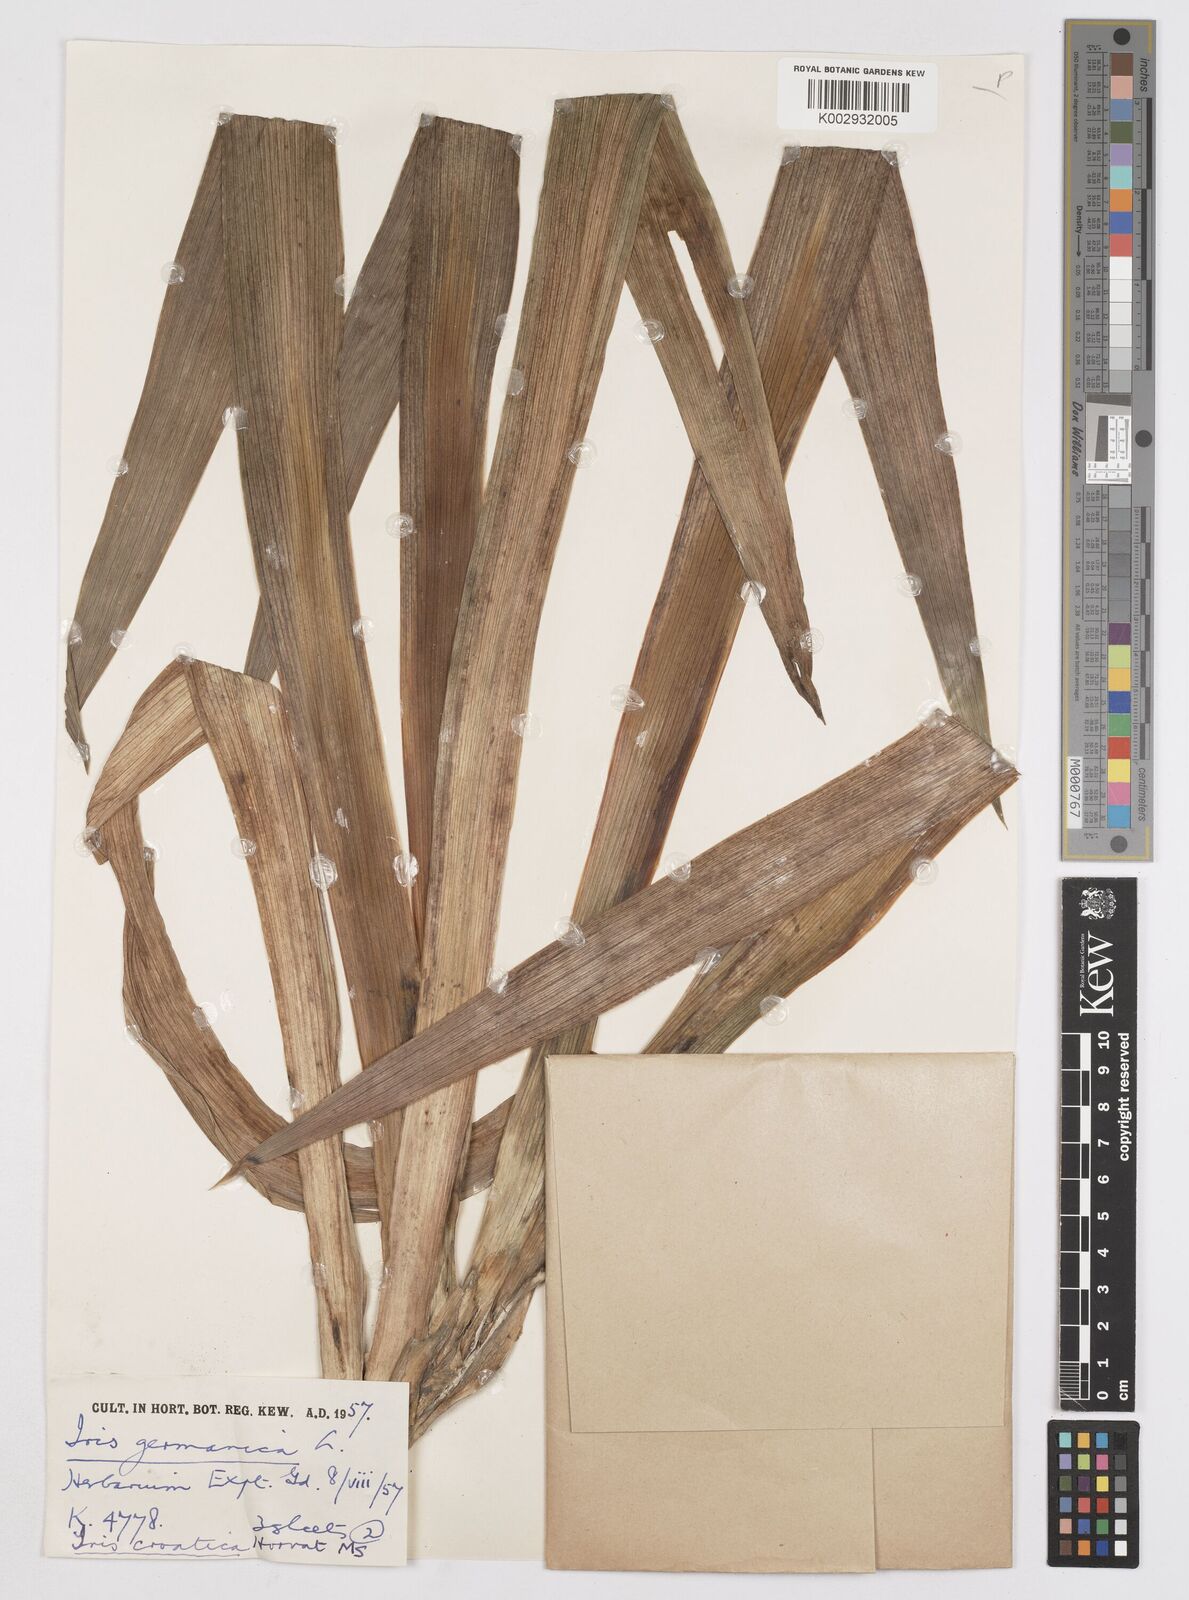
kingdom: Plantae
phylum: Tracheophyta
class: Liliopsida
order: Asparagales
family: Iridaceae
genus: Iris
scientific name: Iris germanica
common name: German iris
